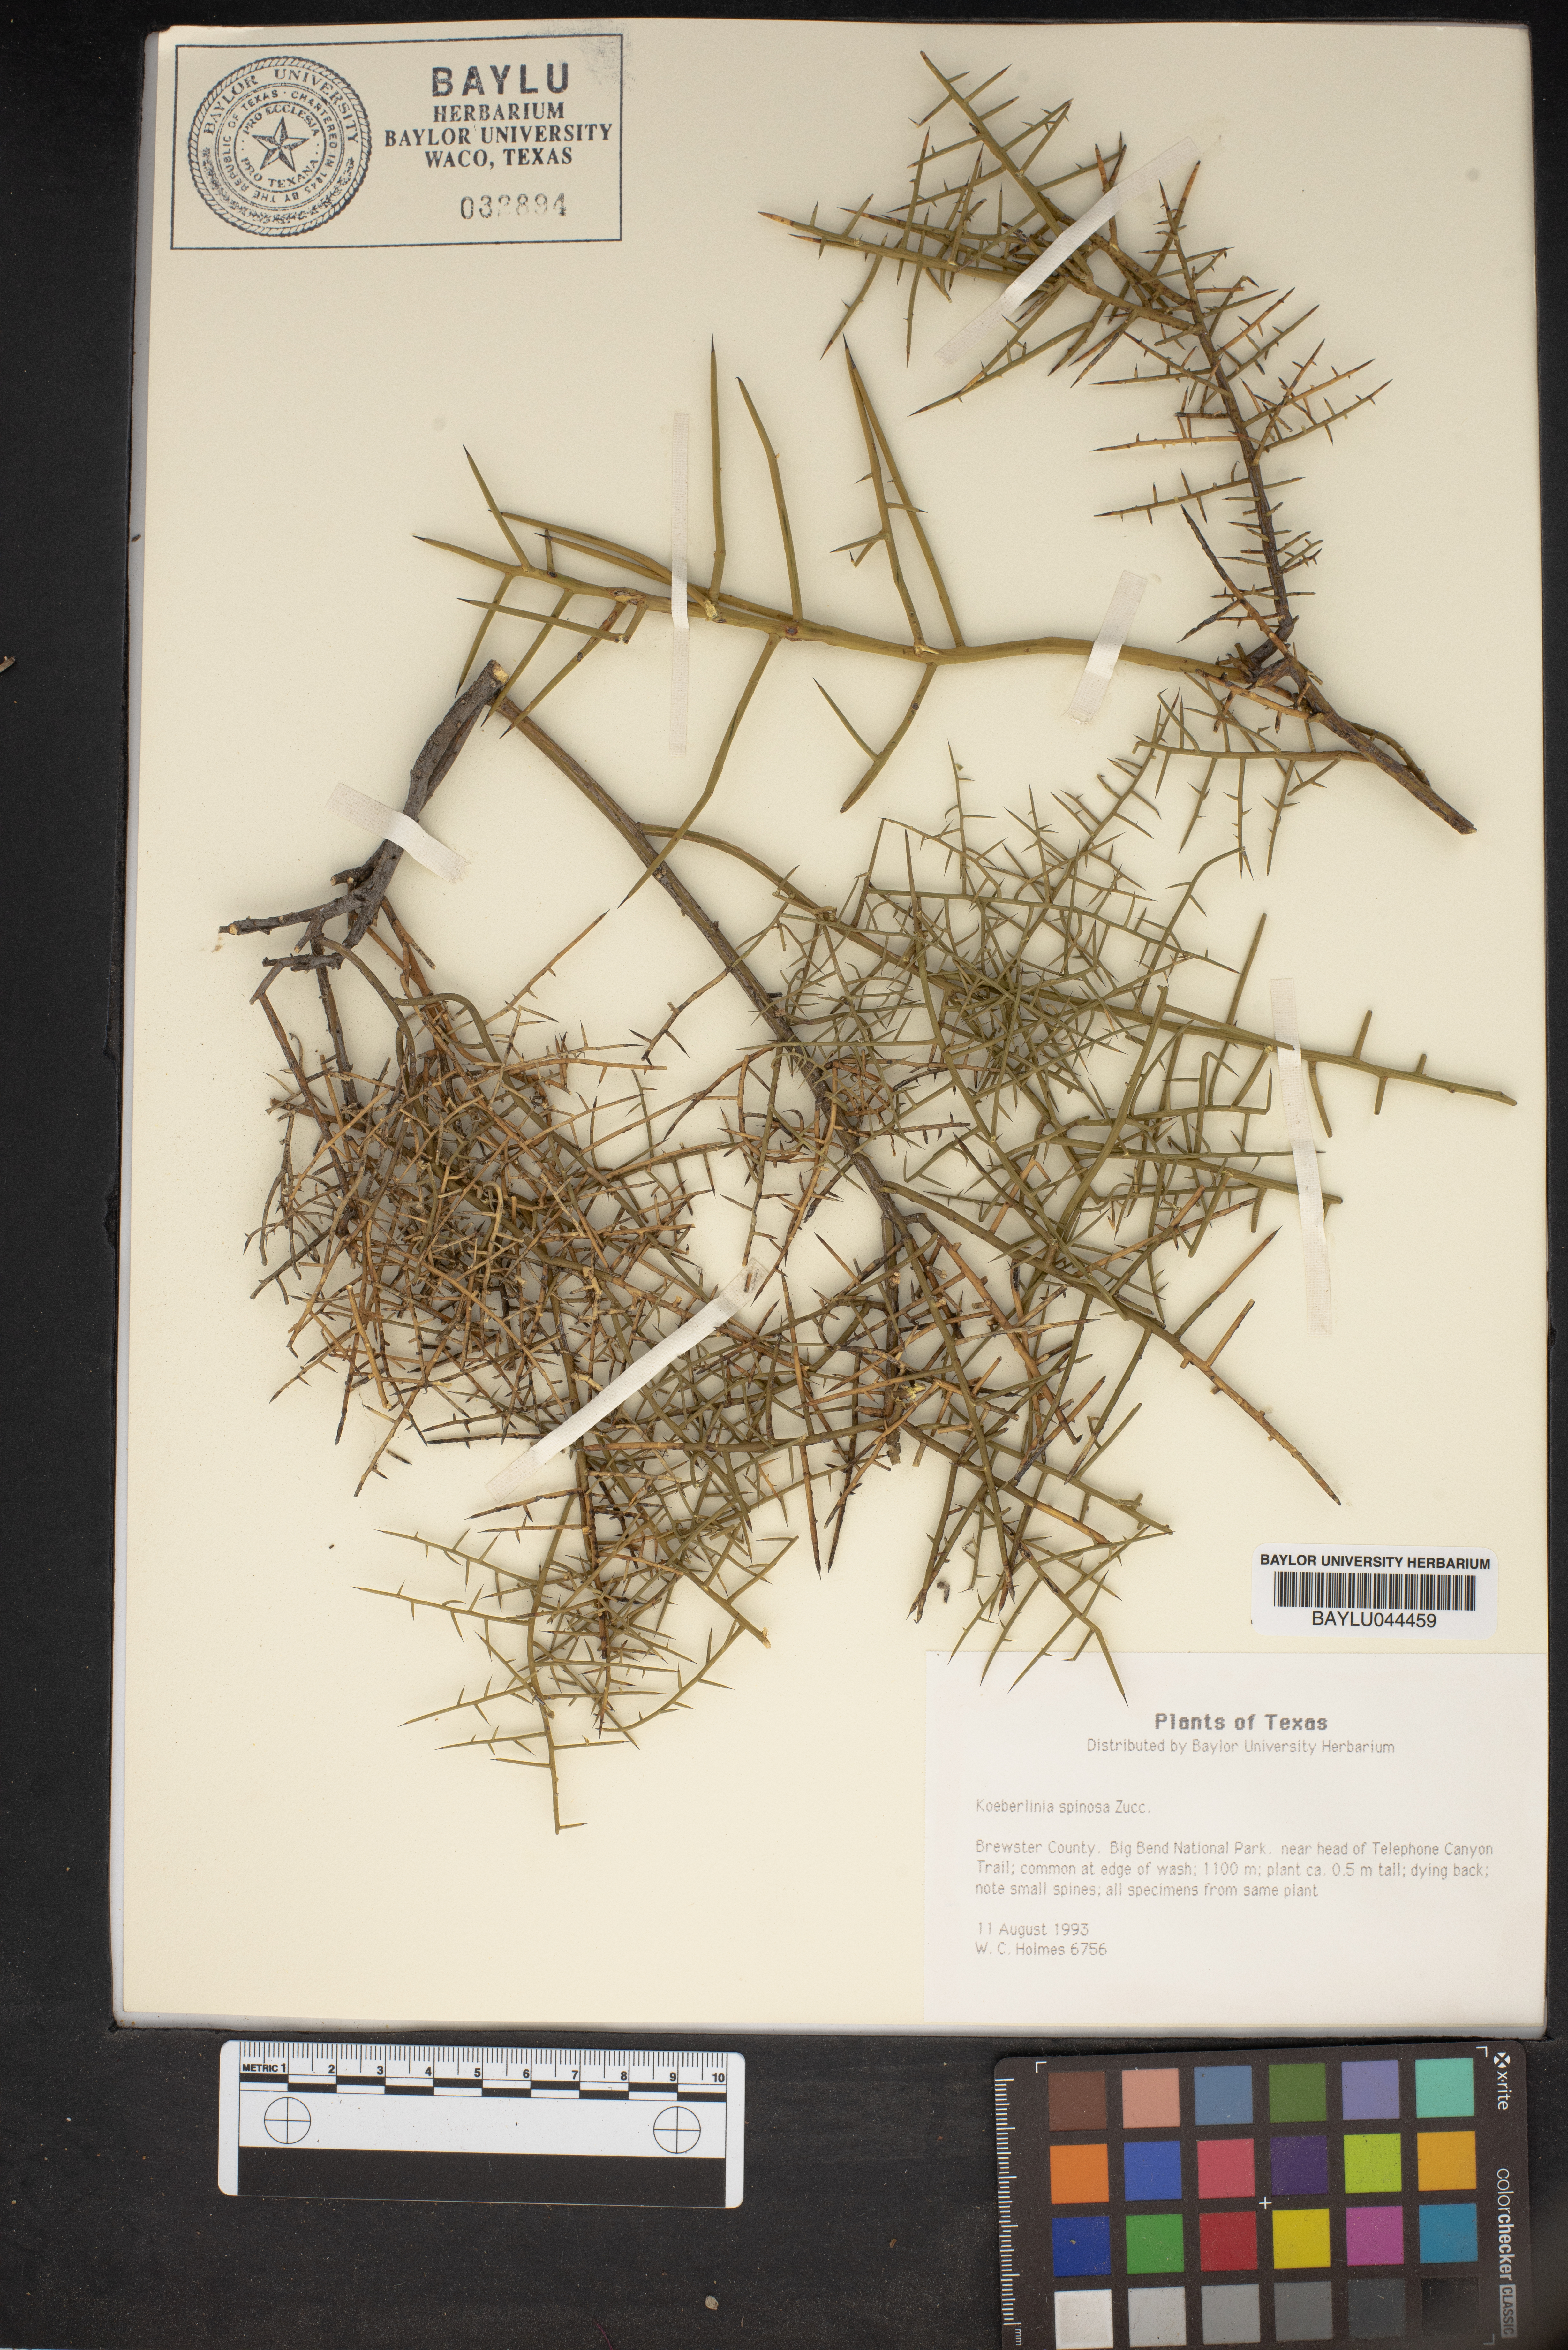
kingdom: Plantae
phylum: Tracheophyta
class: Magnoliopsida
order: Brassicales
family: Koeberliniaceae
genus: Koeberlinia
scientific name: Koeberlinia spinosa
